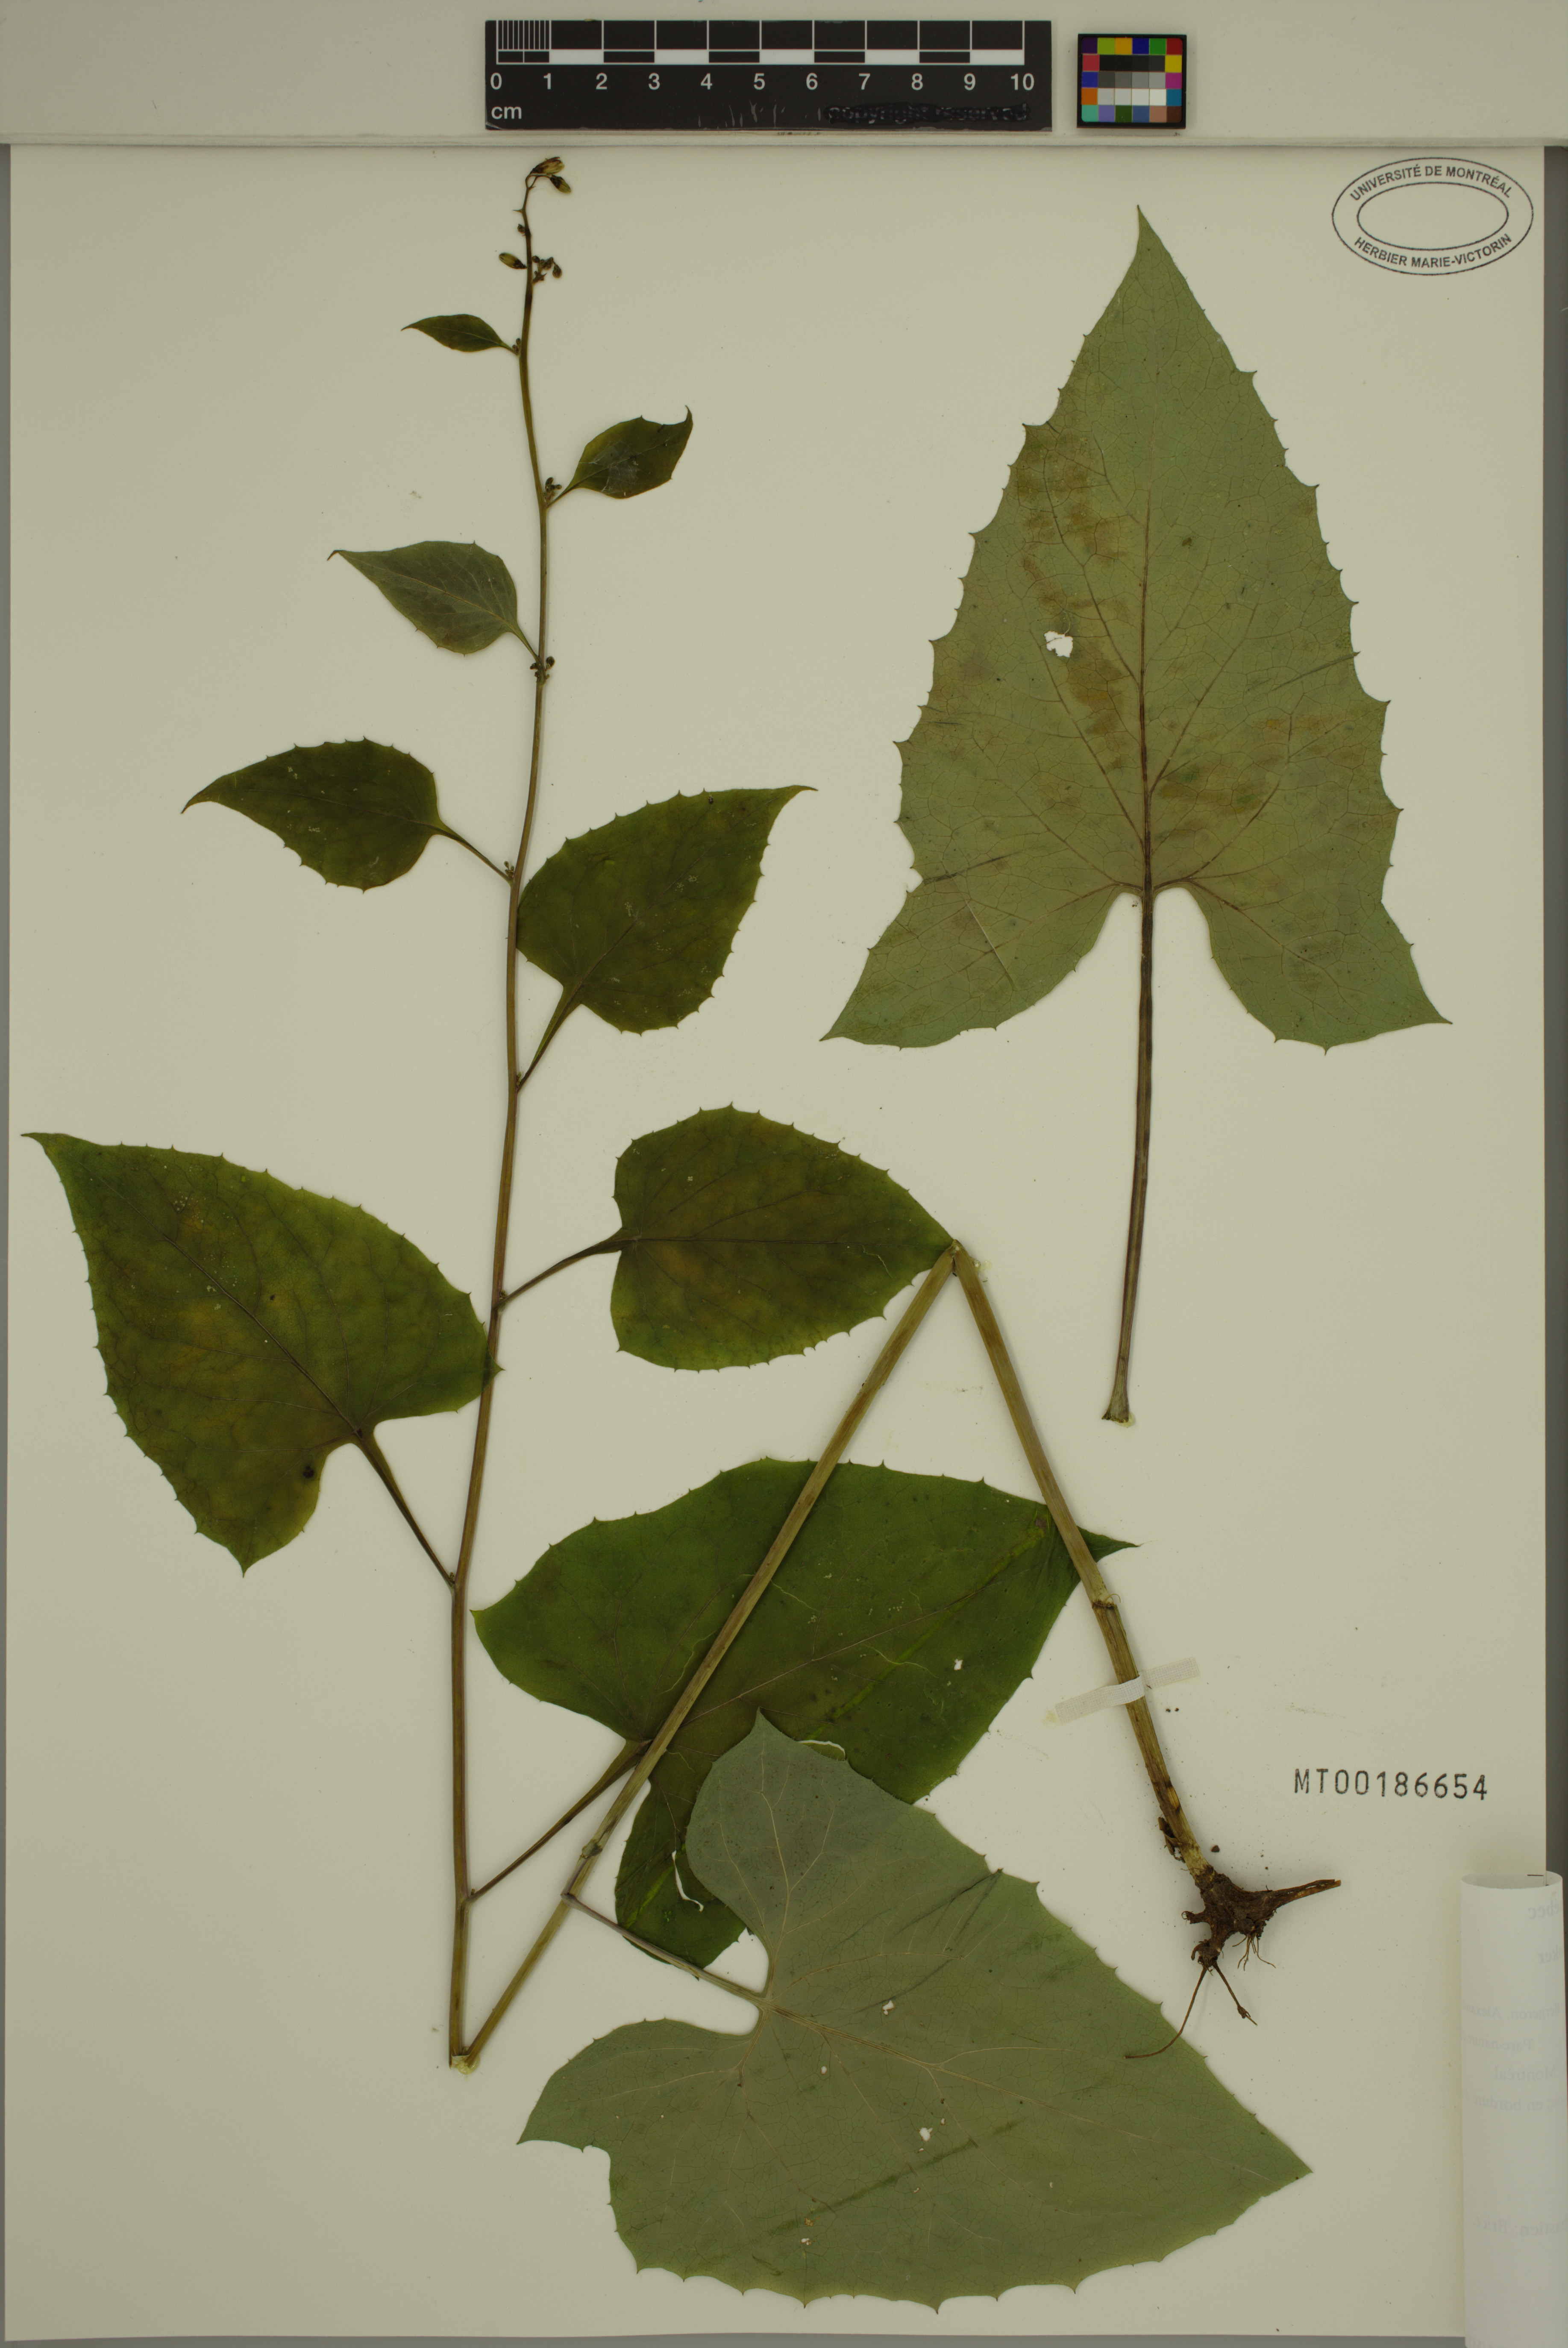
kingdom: Plantae
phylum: Tracheophyta
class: Magnoliopsida
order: Asterales
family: Asteraceae
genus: Nabalus
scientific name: Nabalus altissima
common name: Tall rattlesnakeroot
